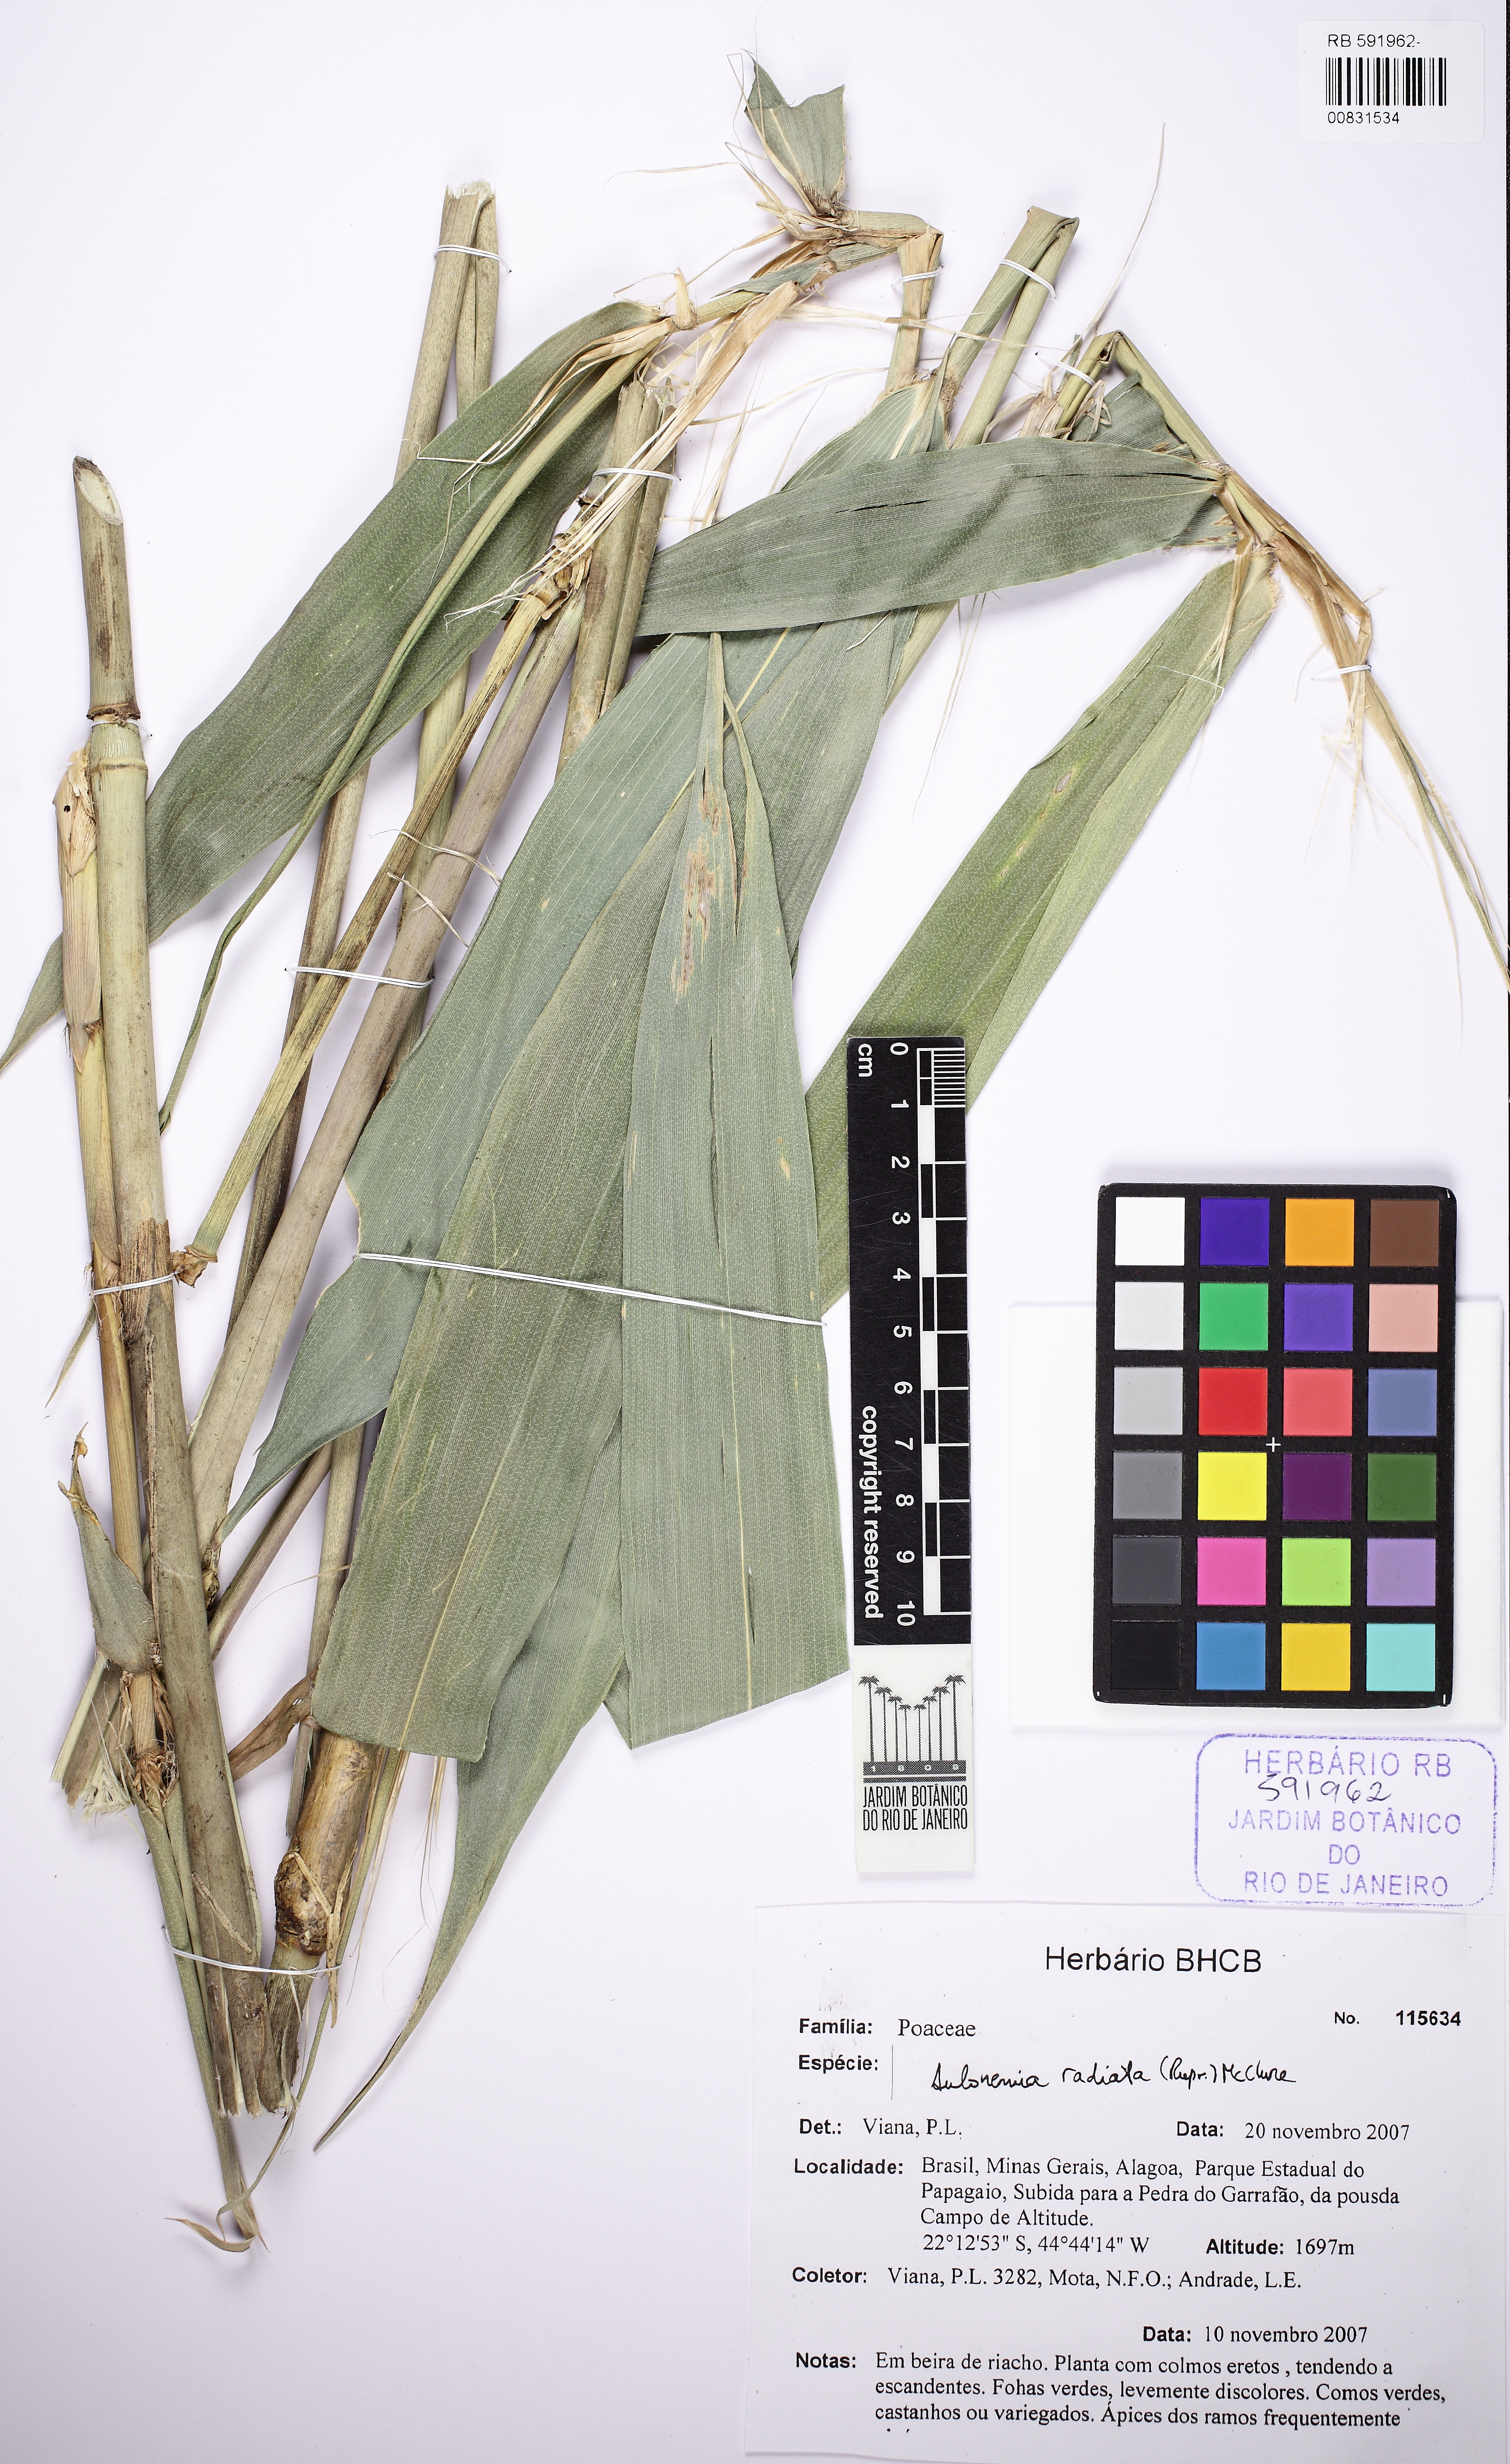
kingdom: Plantae
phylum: Tracheophyta
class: Liliopsida
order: Poales
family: Poaceae
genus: Aulonemia
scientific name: Aulonemia radiata
